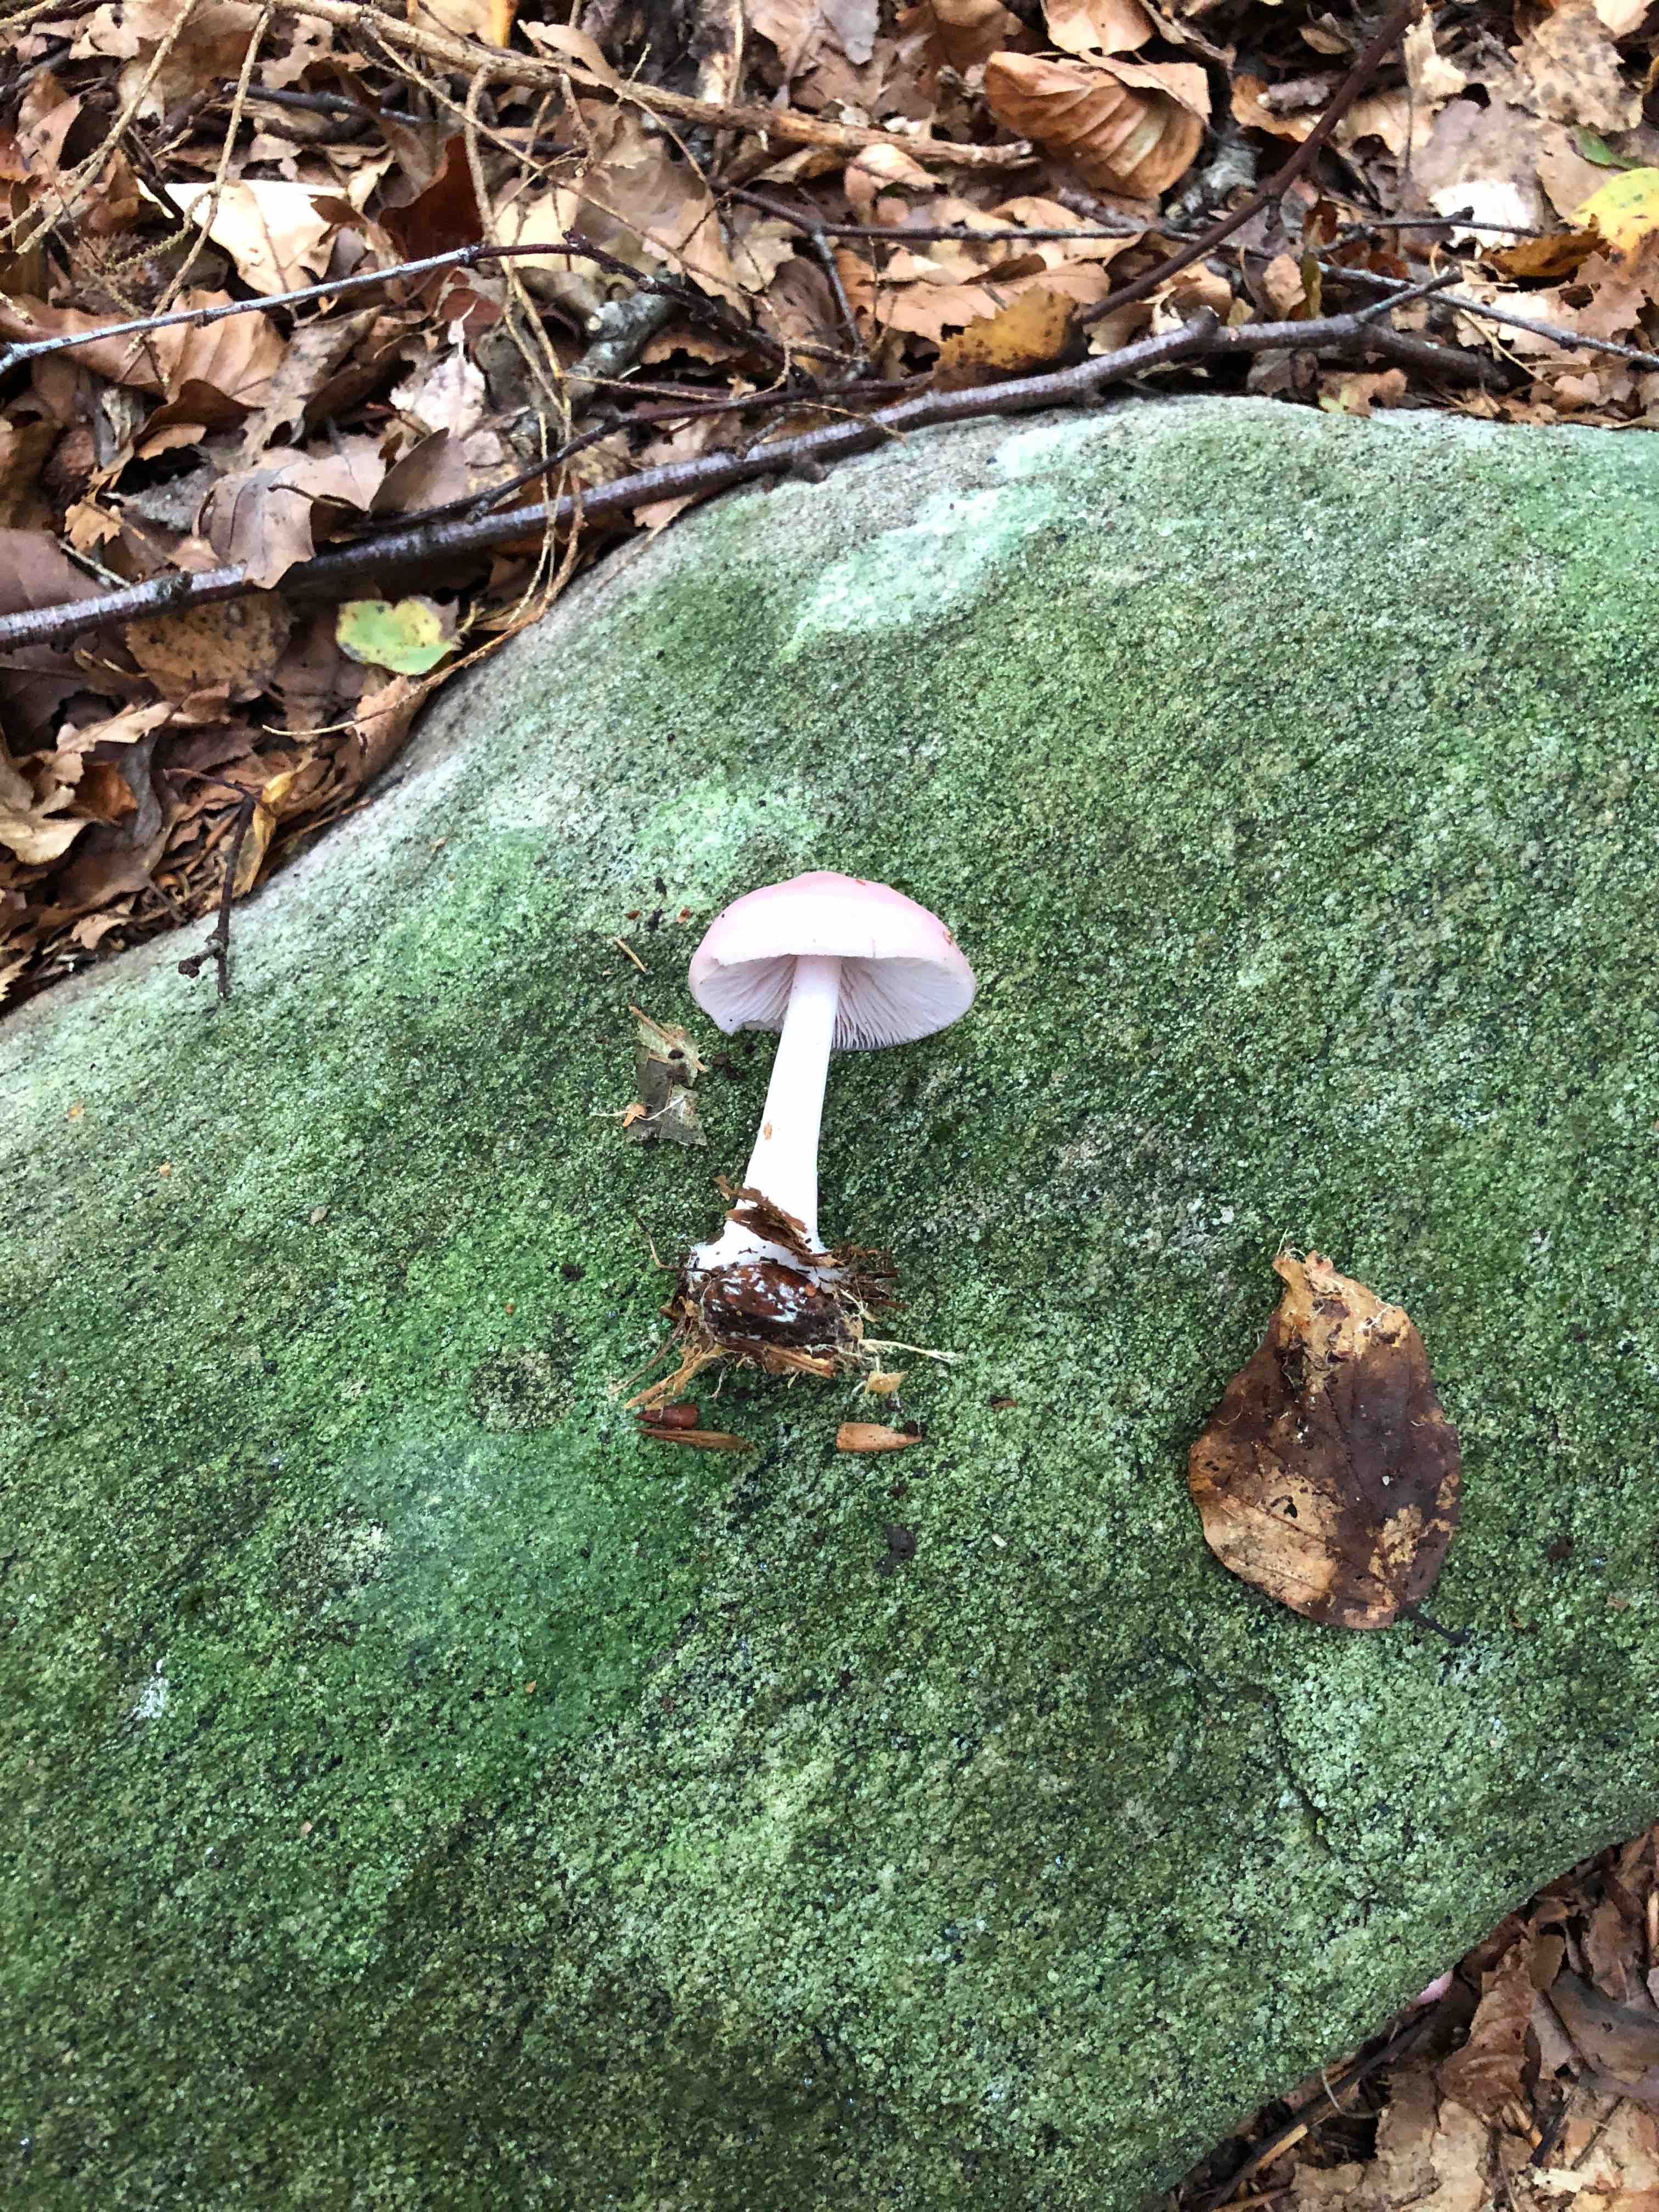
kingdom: Fungi
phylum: Basidiomycota
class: Agaricomycetes
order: Agaricales
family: Mycenaceae
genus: Mycena
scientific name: Mycena rosea
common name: rosa huesvamp
